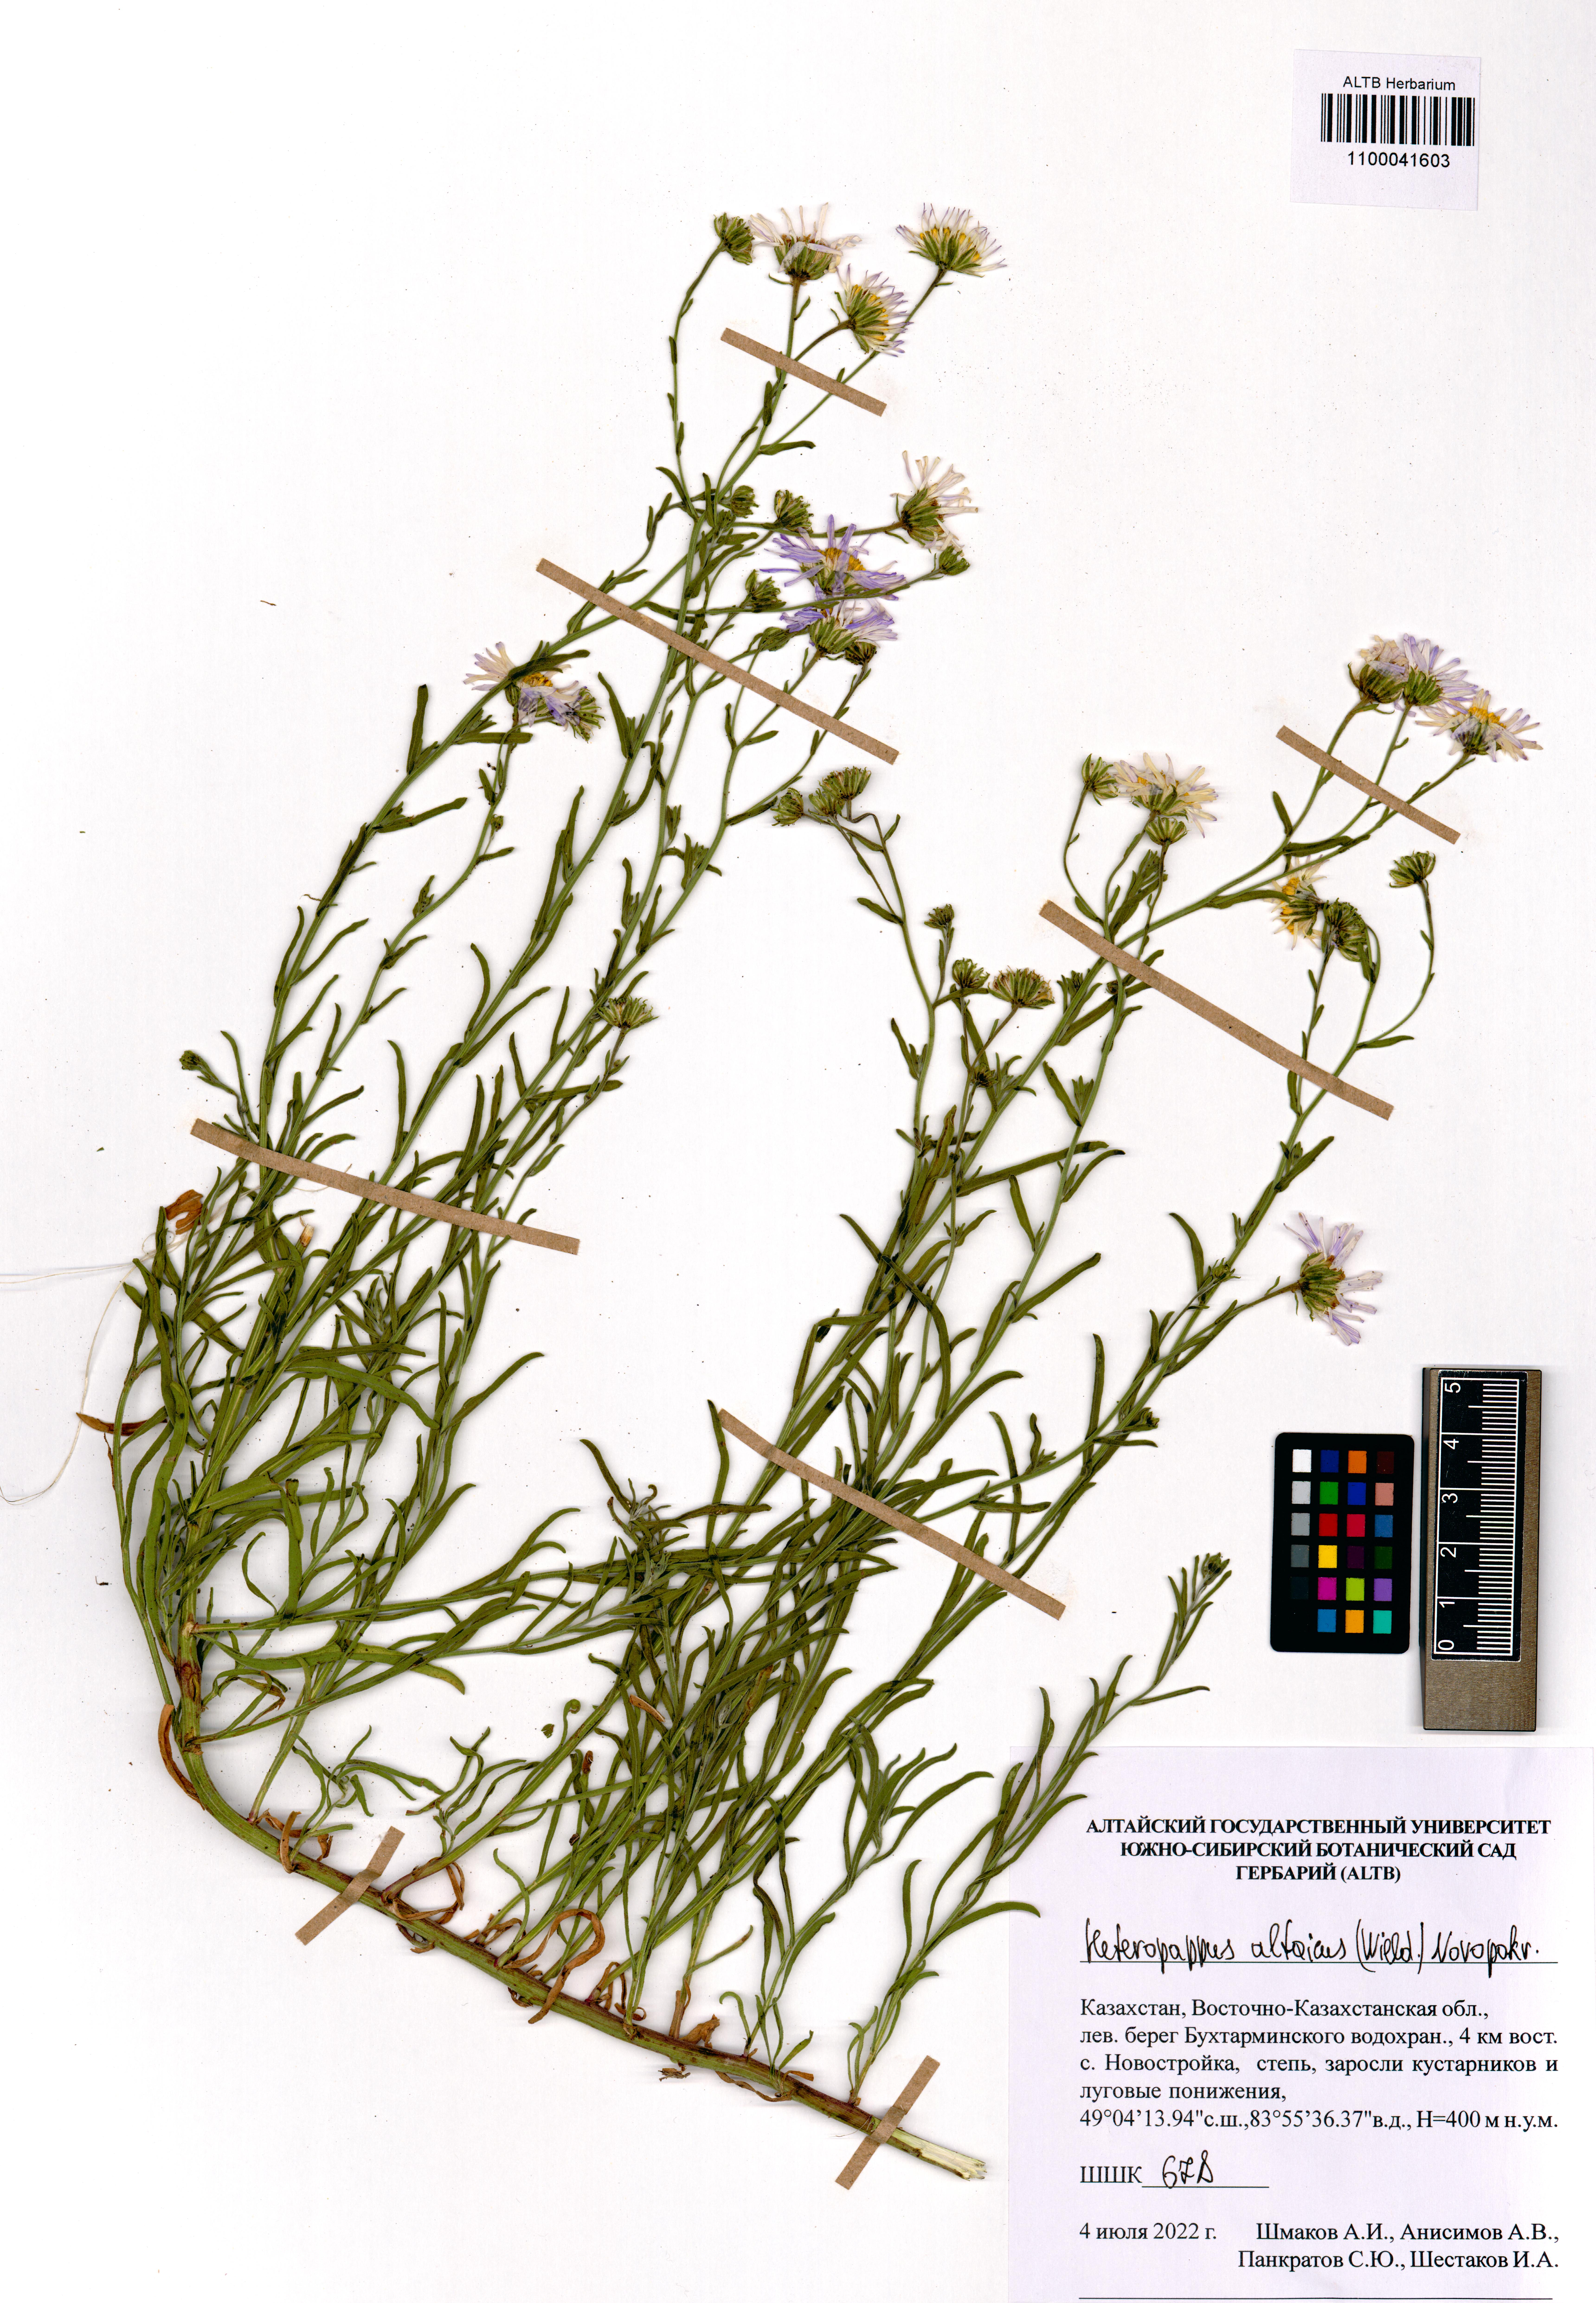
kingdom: Plantae
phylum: Tracheophyta
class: Magnoliopsida
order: Asterales
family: Asteraceae
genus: Heteropappus
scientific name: Heteropappus altaicus
